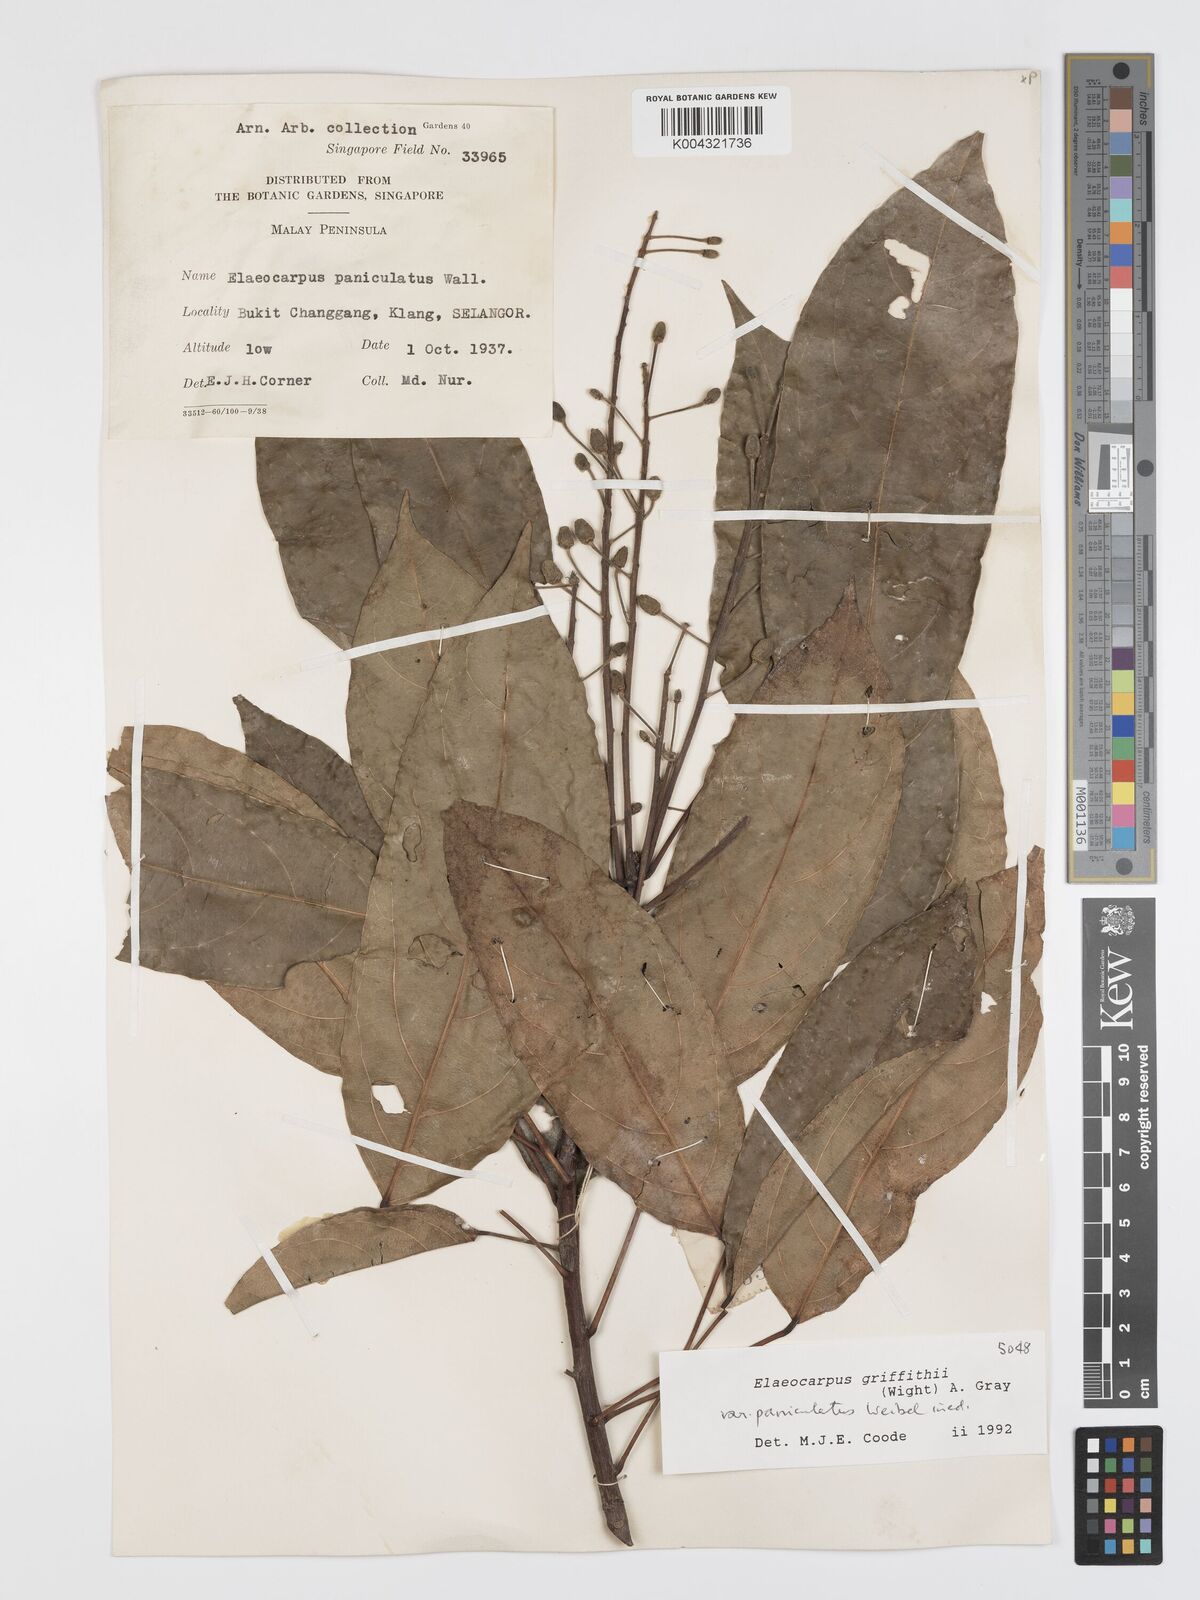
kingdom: Plantae
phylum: Tracheophyta
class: Magnoliopsida
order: Oxalidales
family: Elaeocarpaceae
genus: Elaeocarpus
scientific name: Elaeocarpus griffithii
